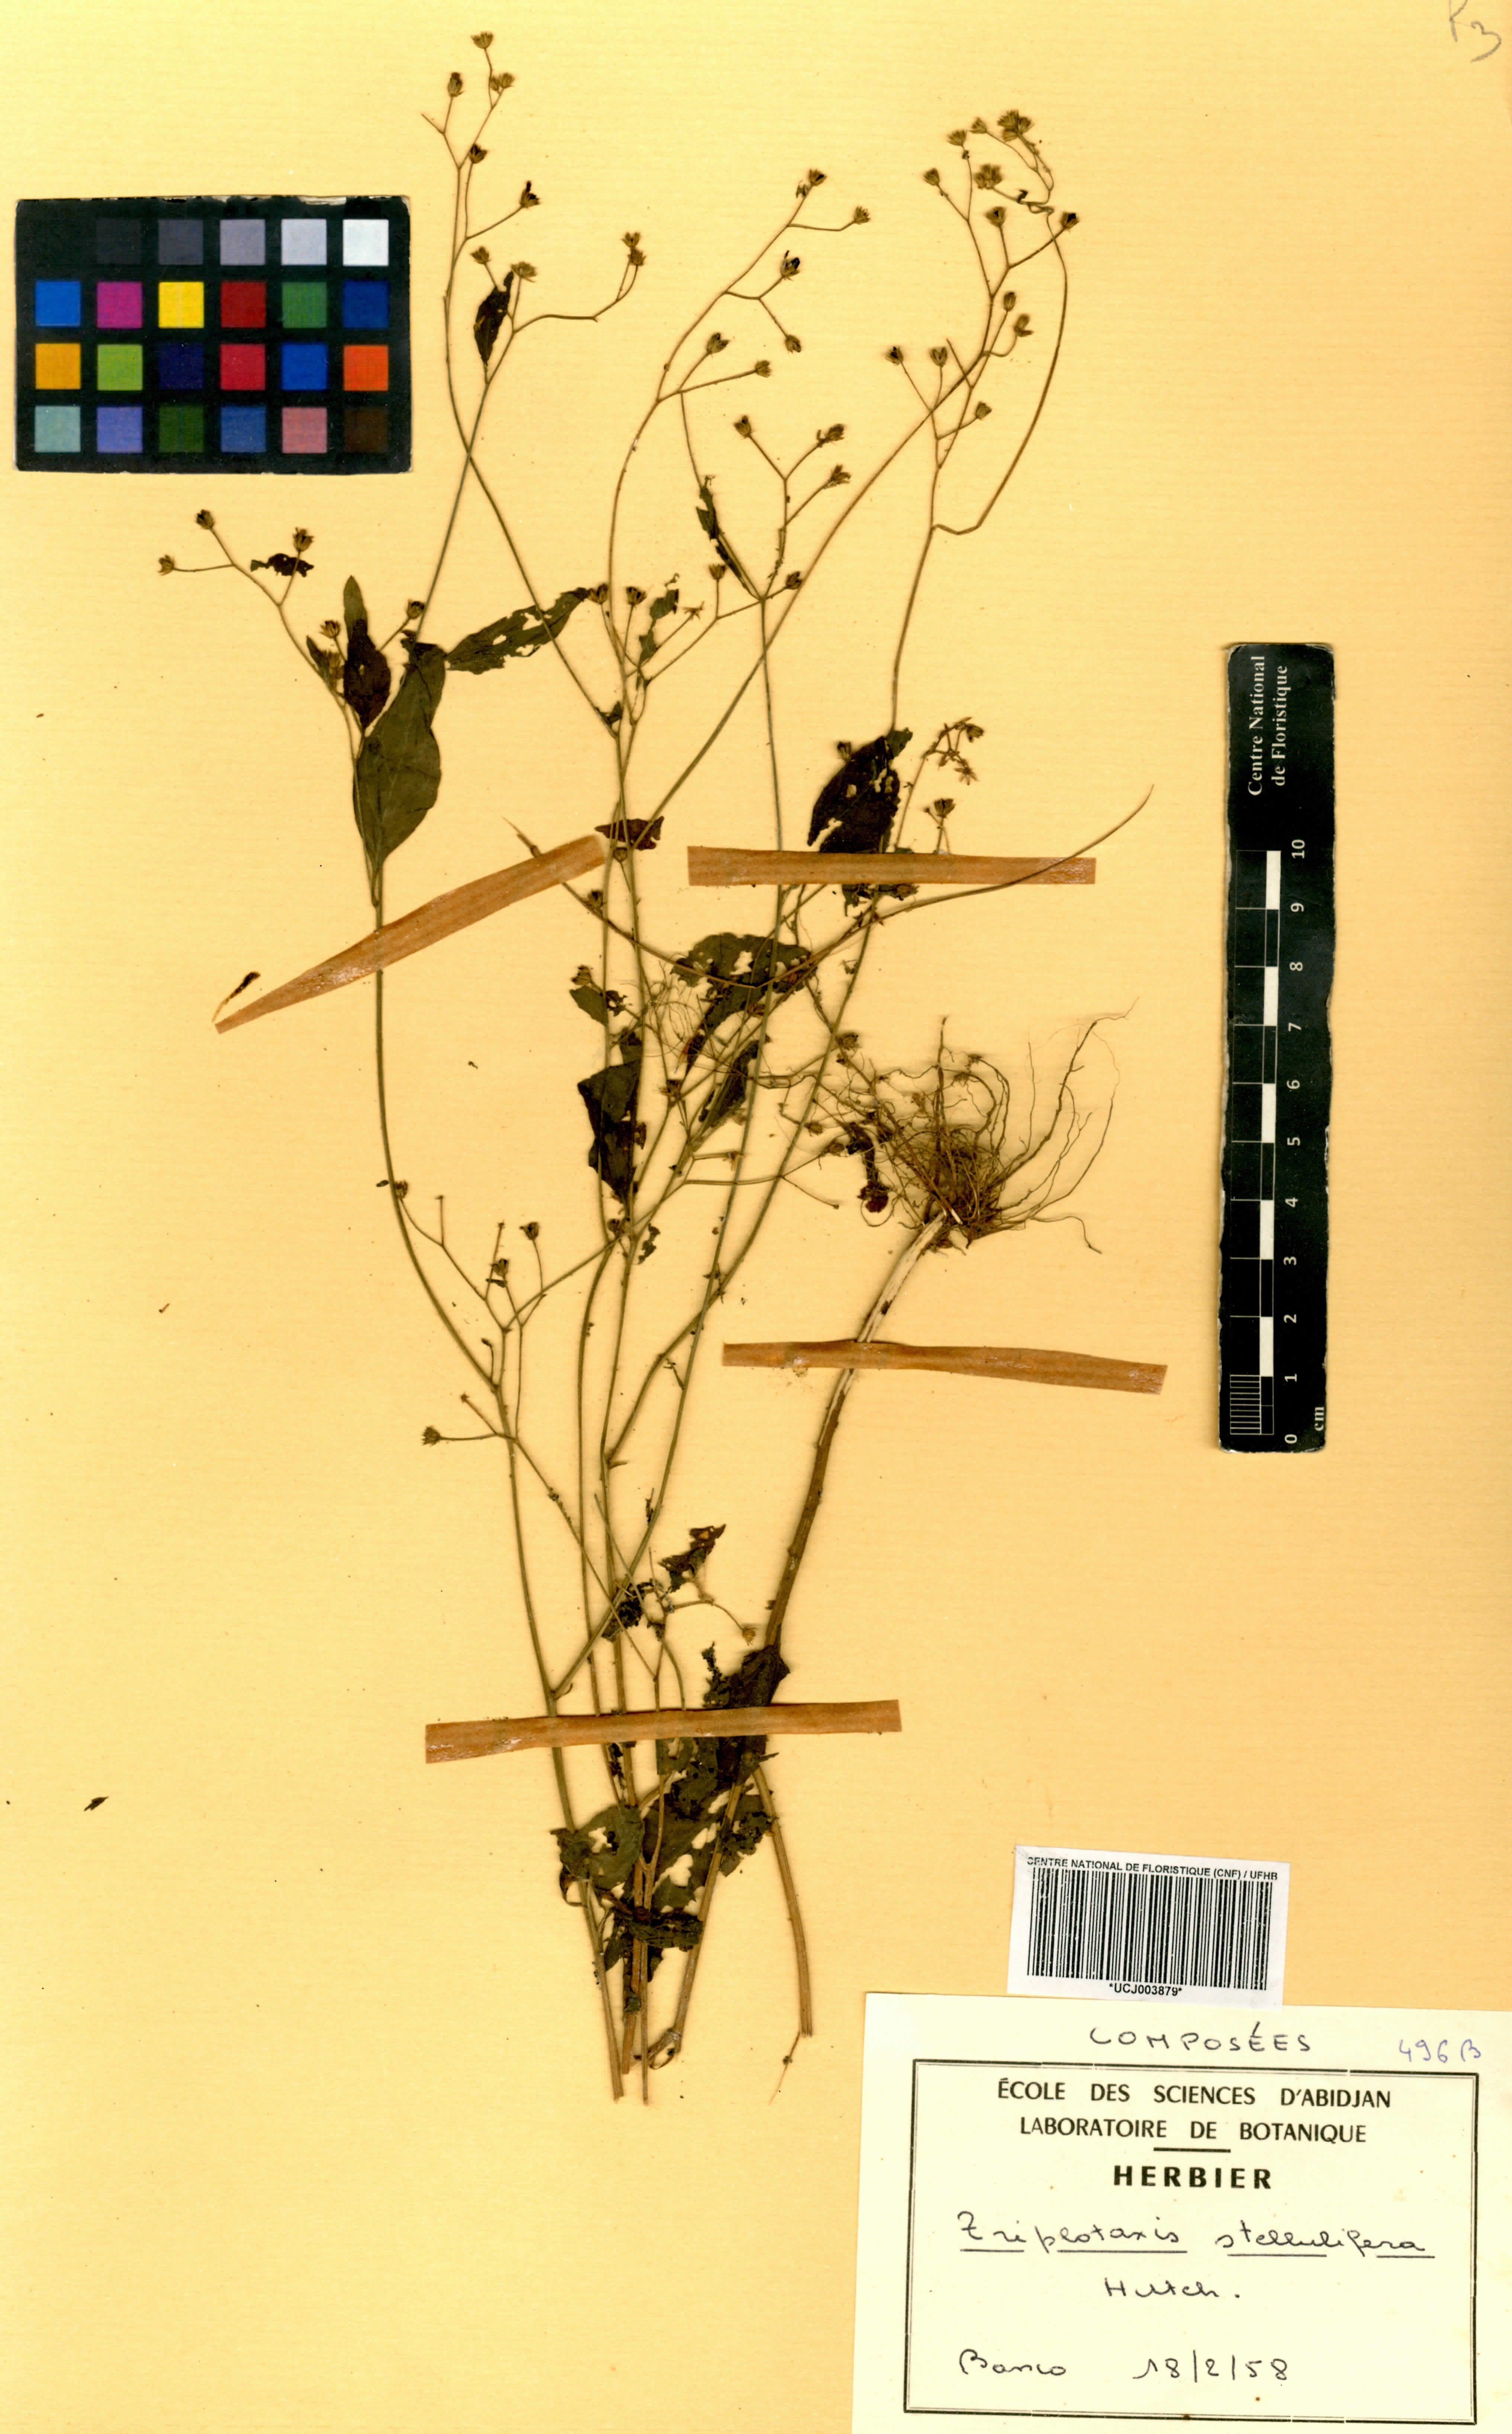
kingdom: Plantae
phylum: Tracheophyta
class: Magnoliopsida
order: Asterales
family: Asteraceae
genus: Cyanthillium
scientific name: Cyanthillium stelluliferum
